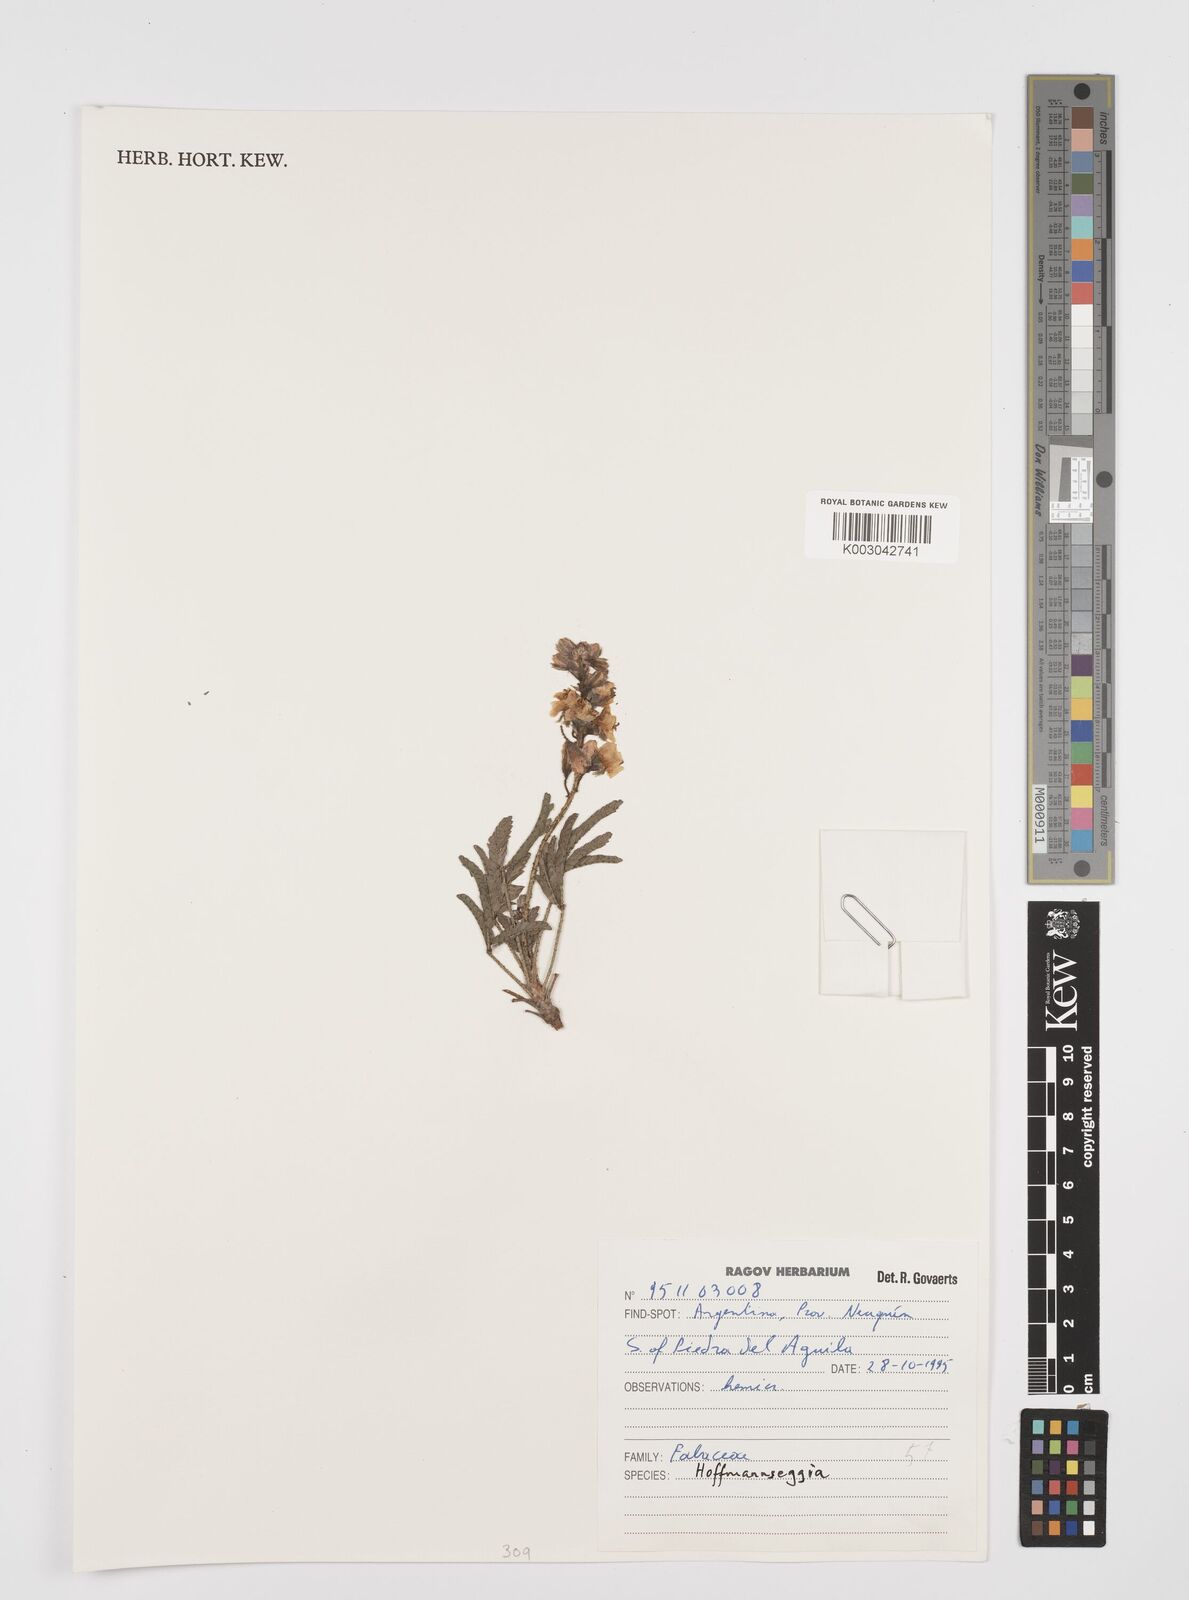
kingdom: Plantae
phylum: Tracheophyta
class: Magnoliopsida
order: Fabales
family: Fabaceae
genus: Hoffmannseggia
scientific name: Hoffmannseggia
